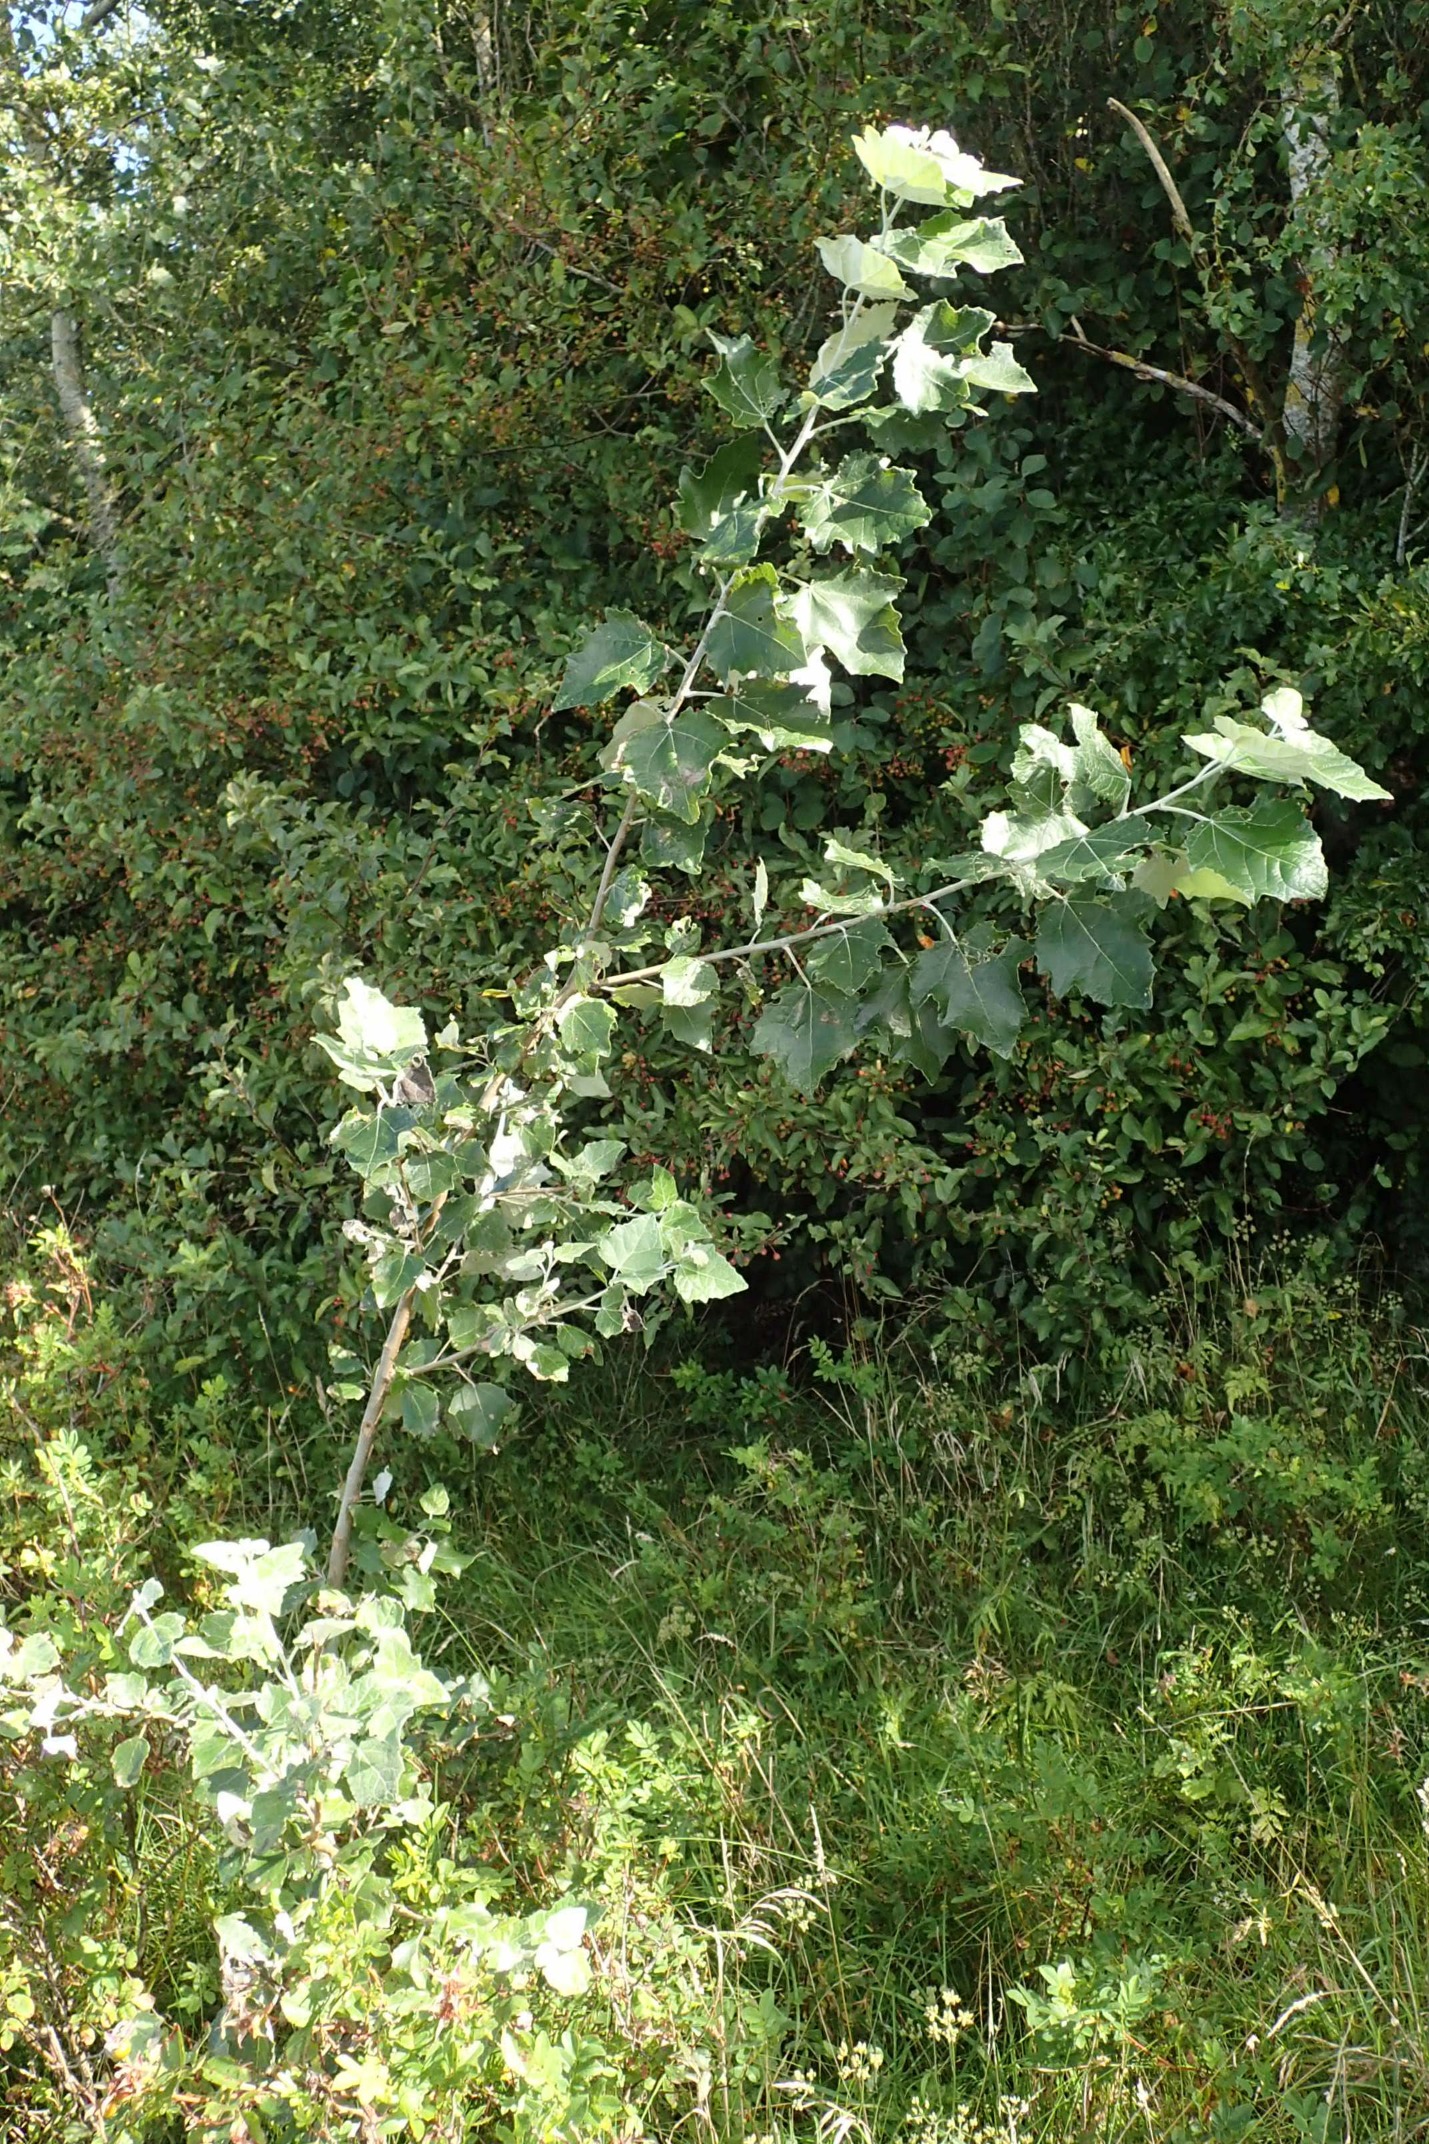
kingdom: Plantae
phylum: Tracheophyta
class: Magnoliopsida
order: Malpighiales
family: Salicaceae
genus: Populus
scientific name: Populus alba
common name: Sølv-poppel
